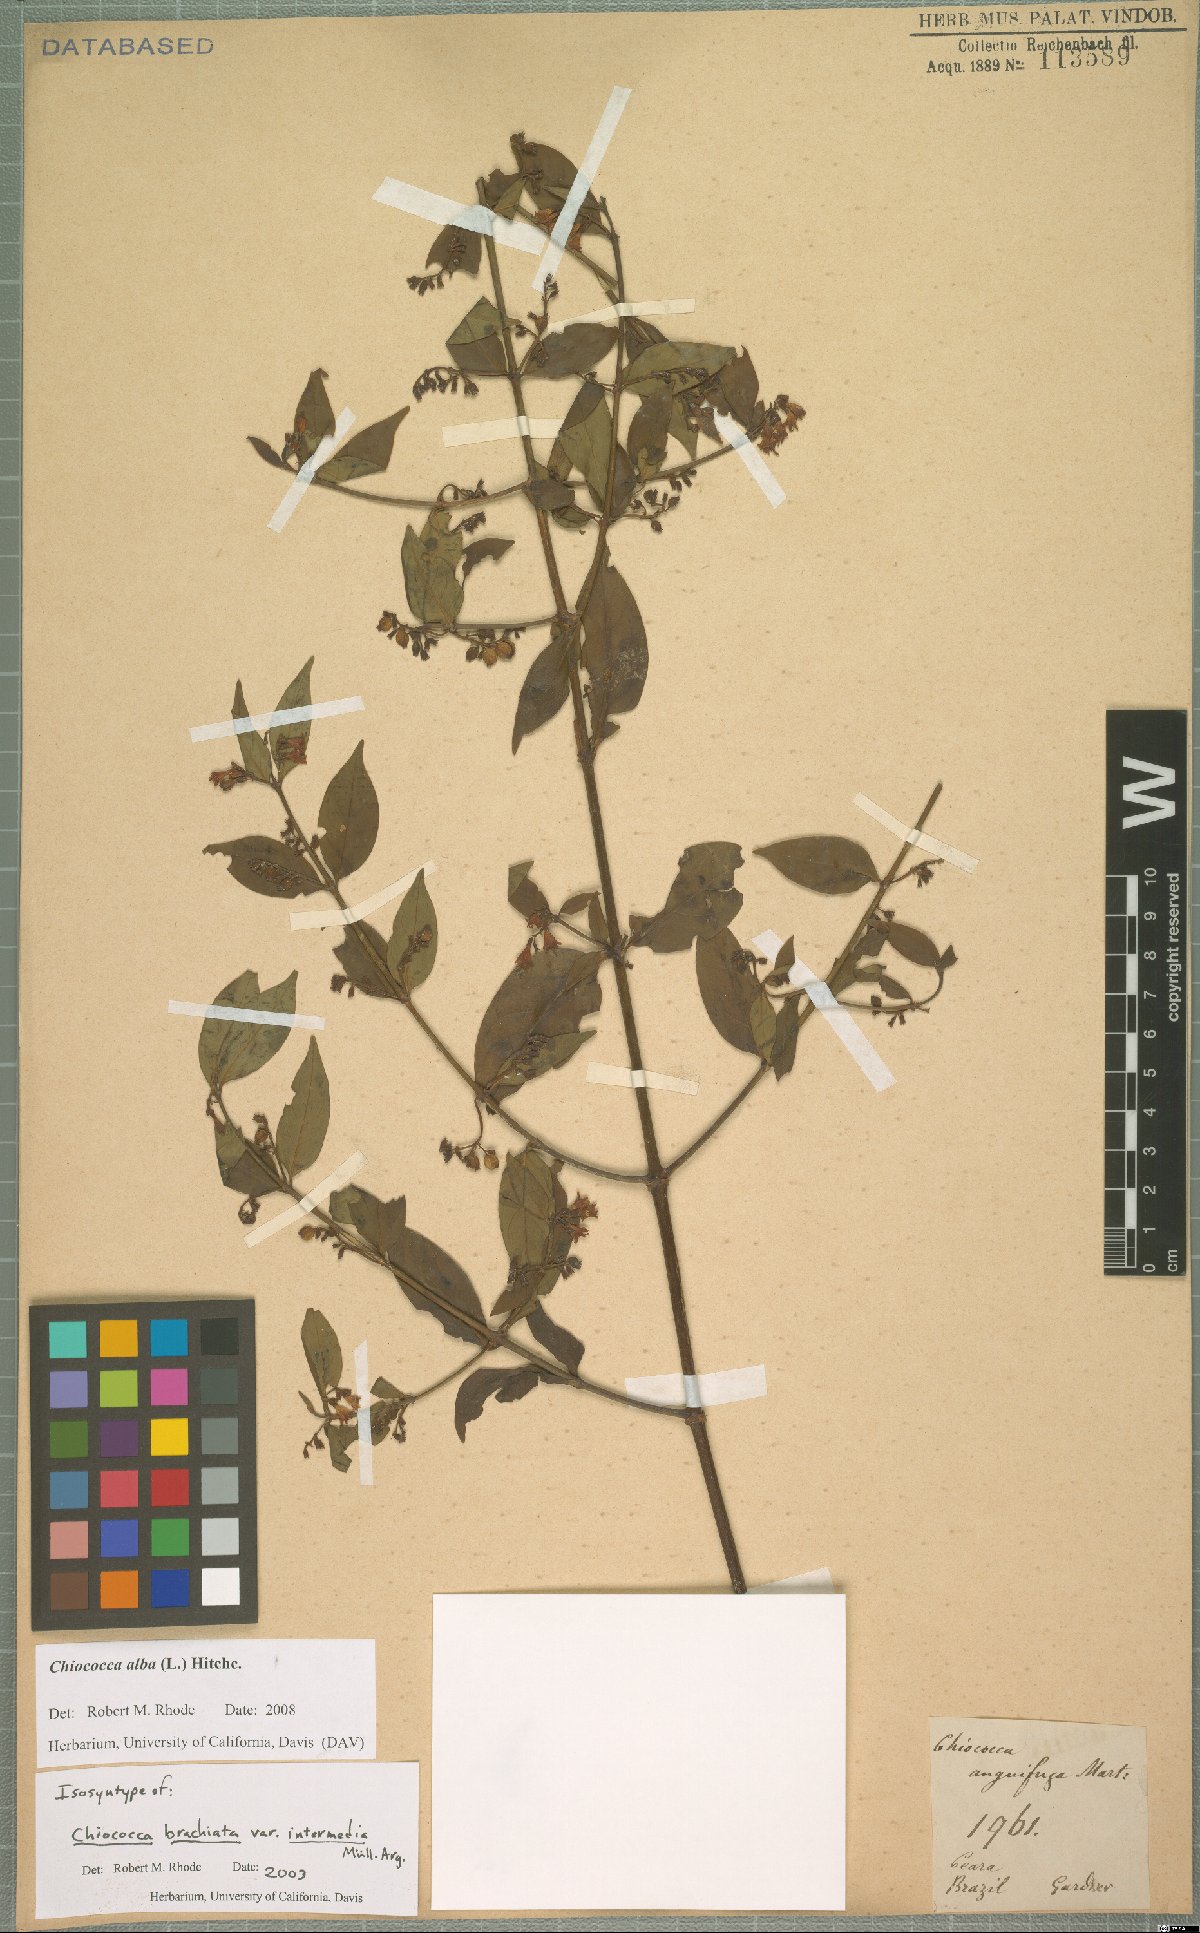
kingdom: Plantae
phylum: Tracheophyta
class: Magnoliopsida
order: Gentianales
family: Rubiaceae
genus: Chiococca
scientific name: Chiococca alba
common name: Snowberry
